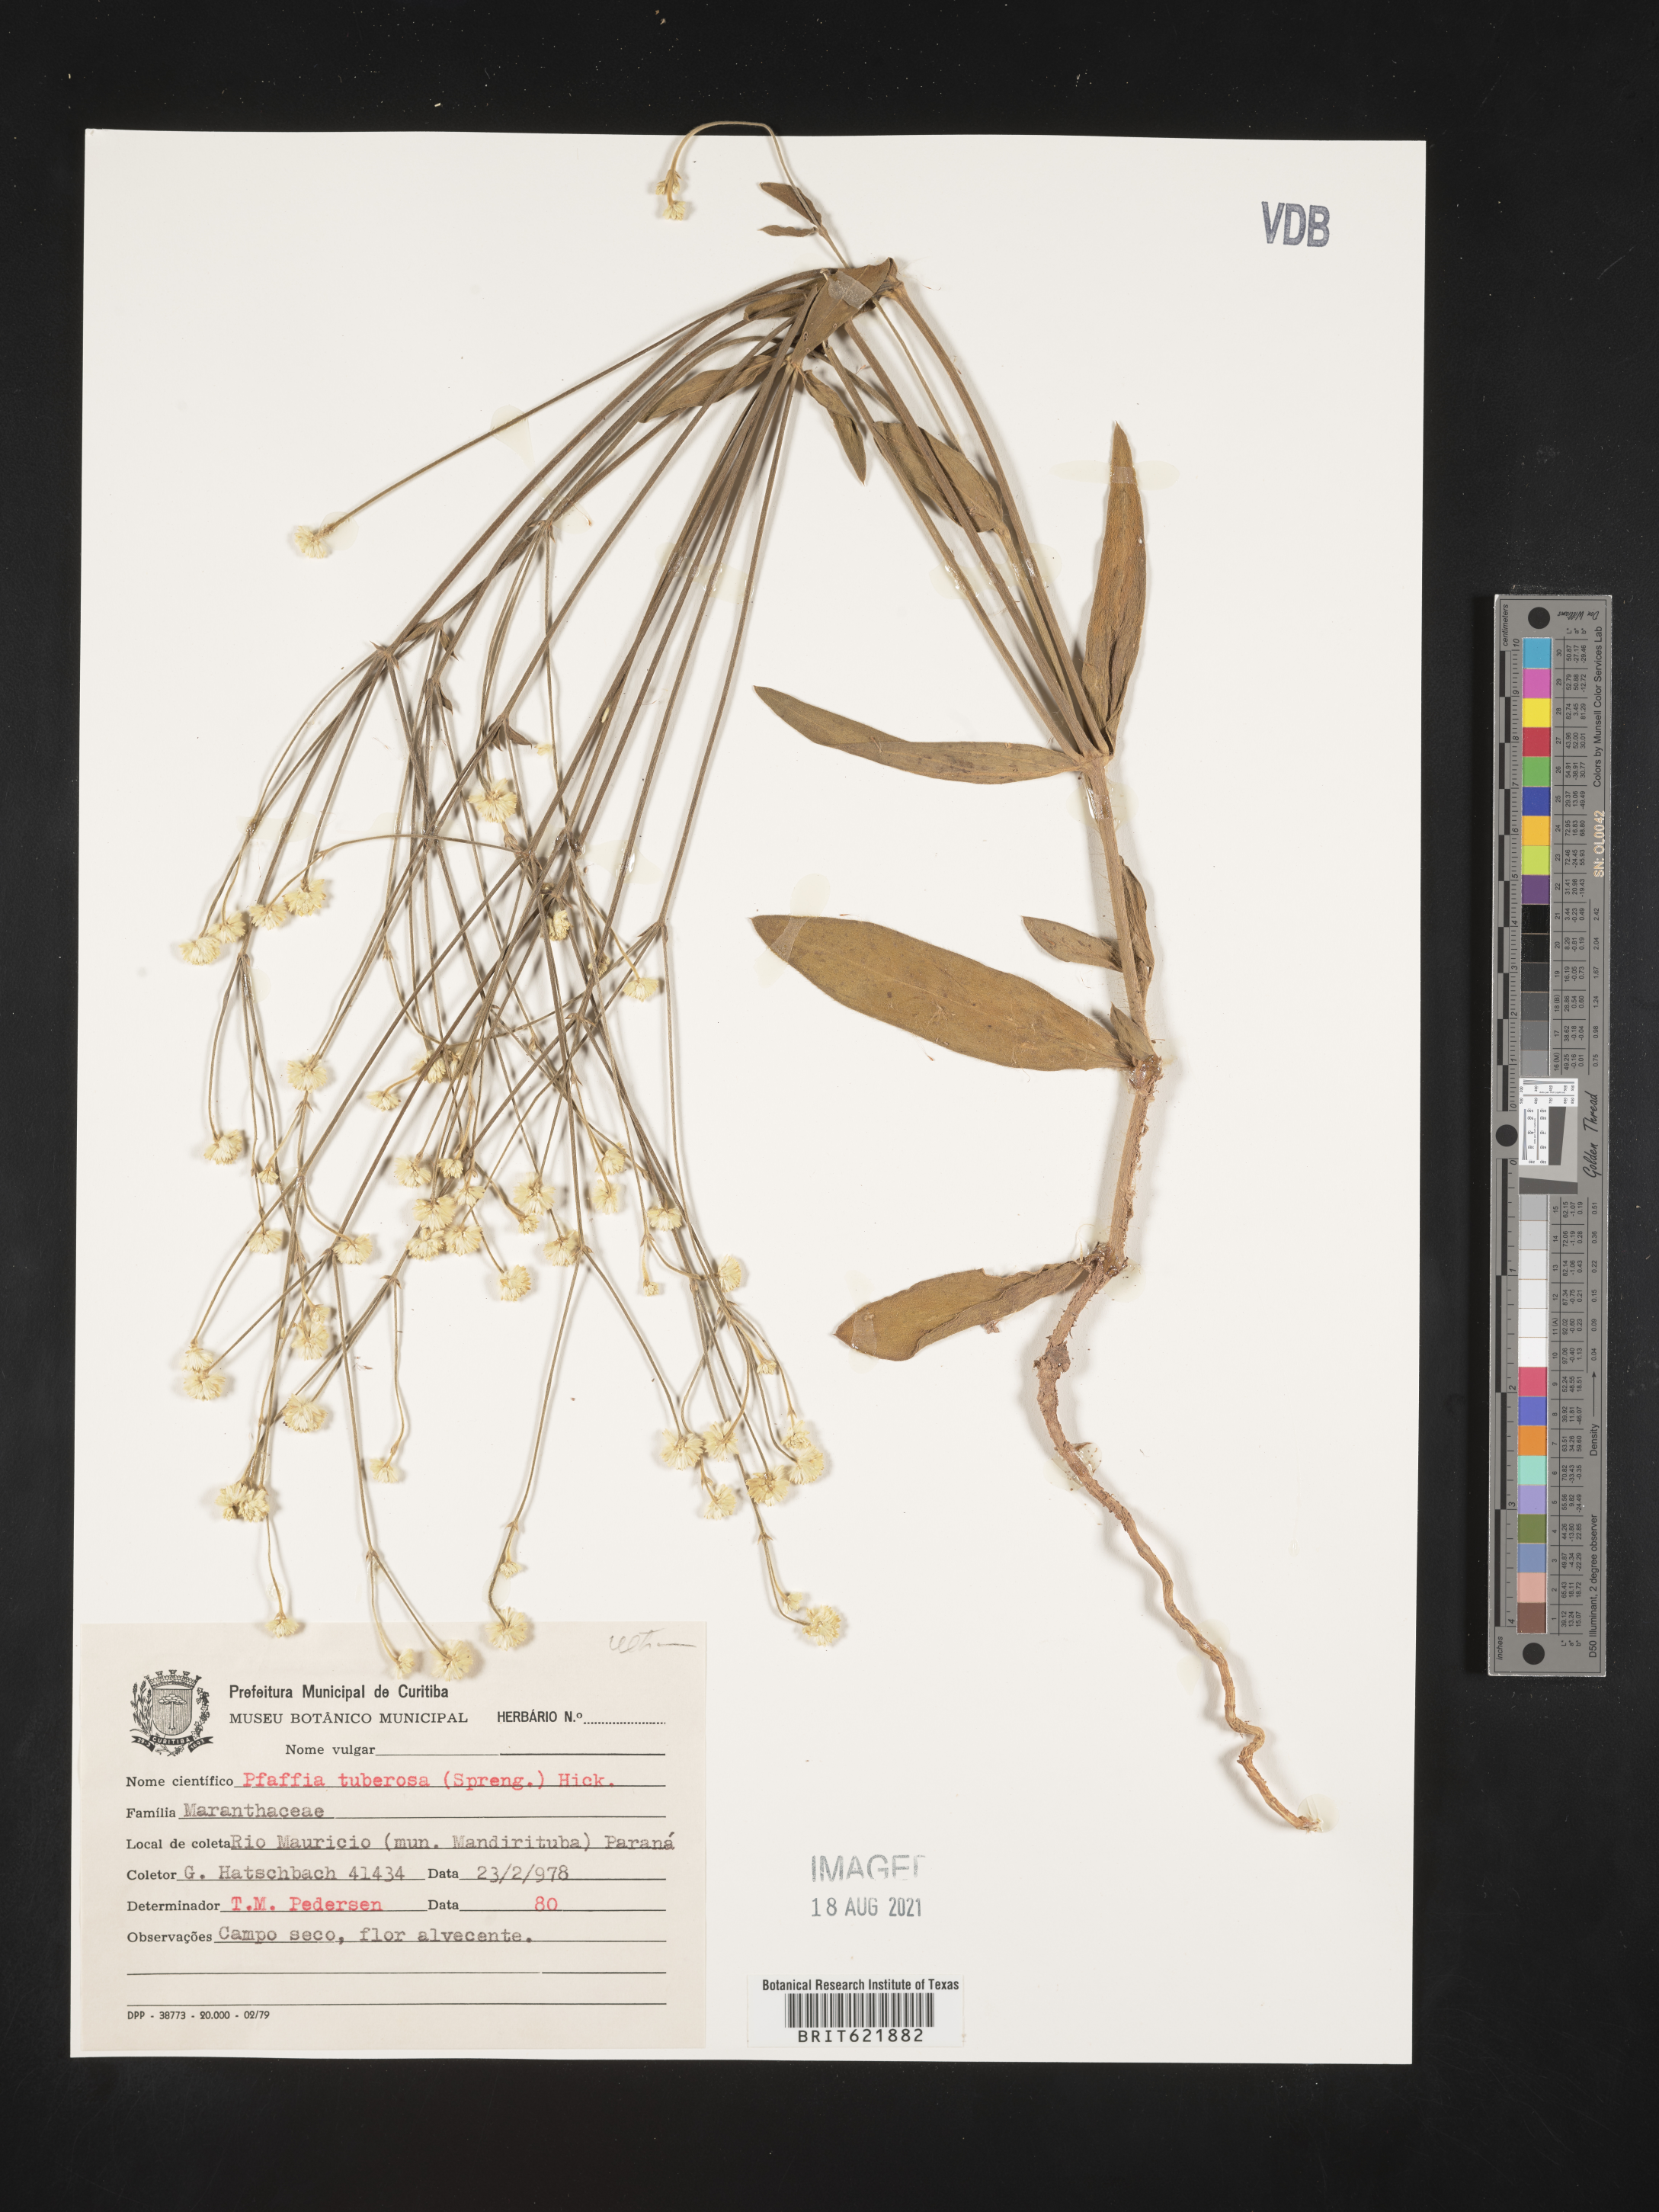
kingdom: Plantae
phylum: Tracheophyta
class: Magnoliopsida
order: Caryophyllales
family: Amaranthaceae
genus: Pfaffia
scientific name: Pfaffia tuberosa
